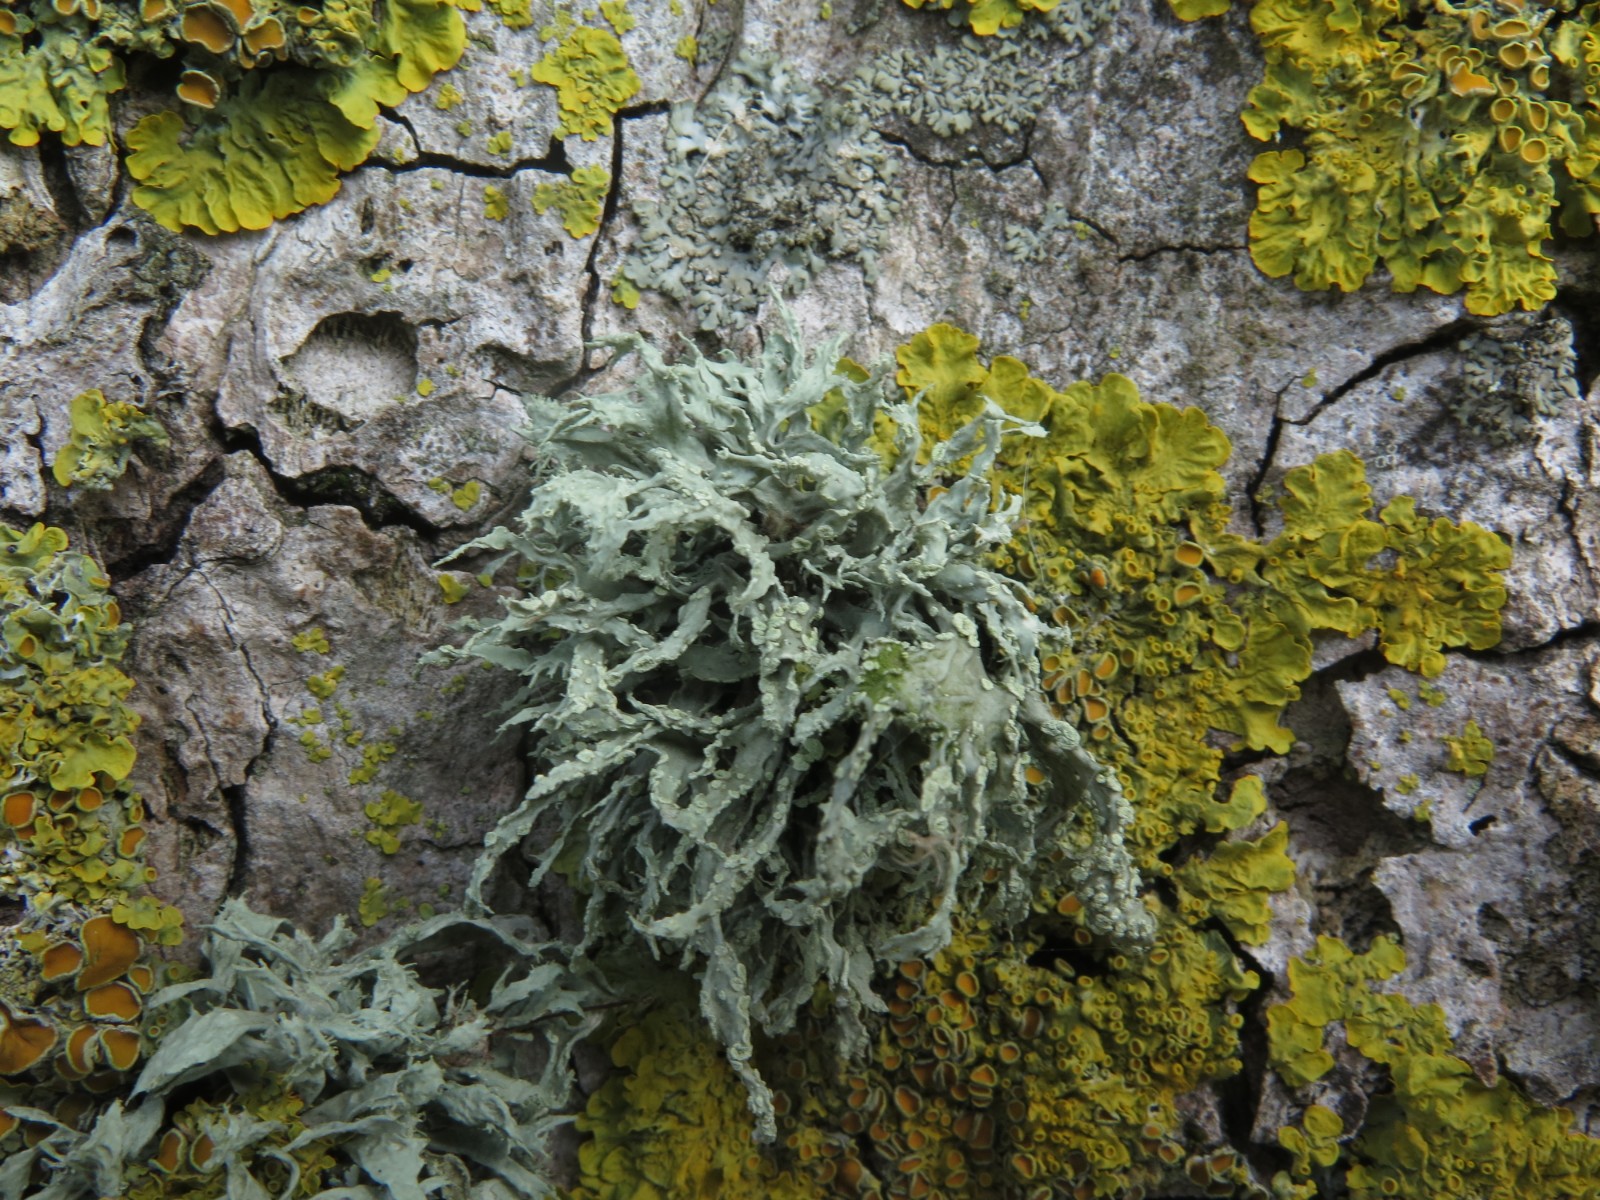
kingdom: Fungi
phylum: Ascomycota
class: Lecanoromycetes
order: Lecanorales
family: Ramalinaceae
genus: Ramalina
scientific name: Ramalina farinacea
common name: melet grenlav
